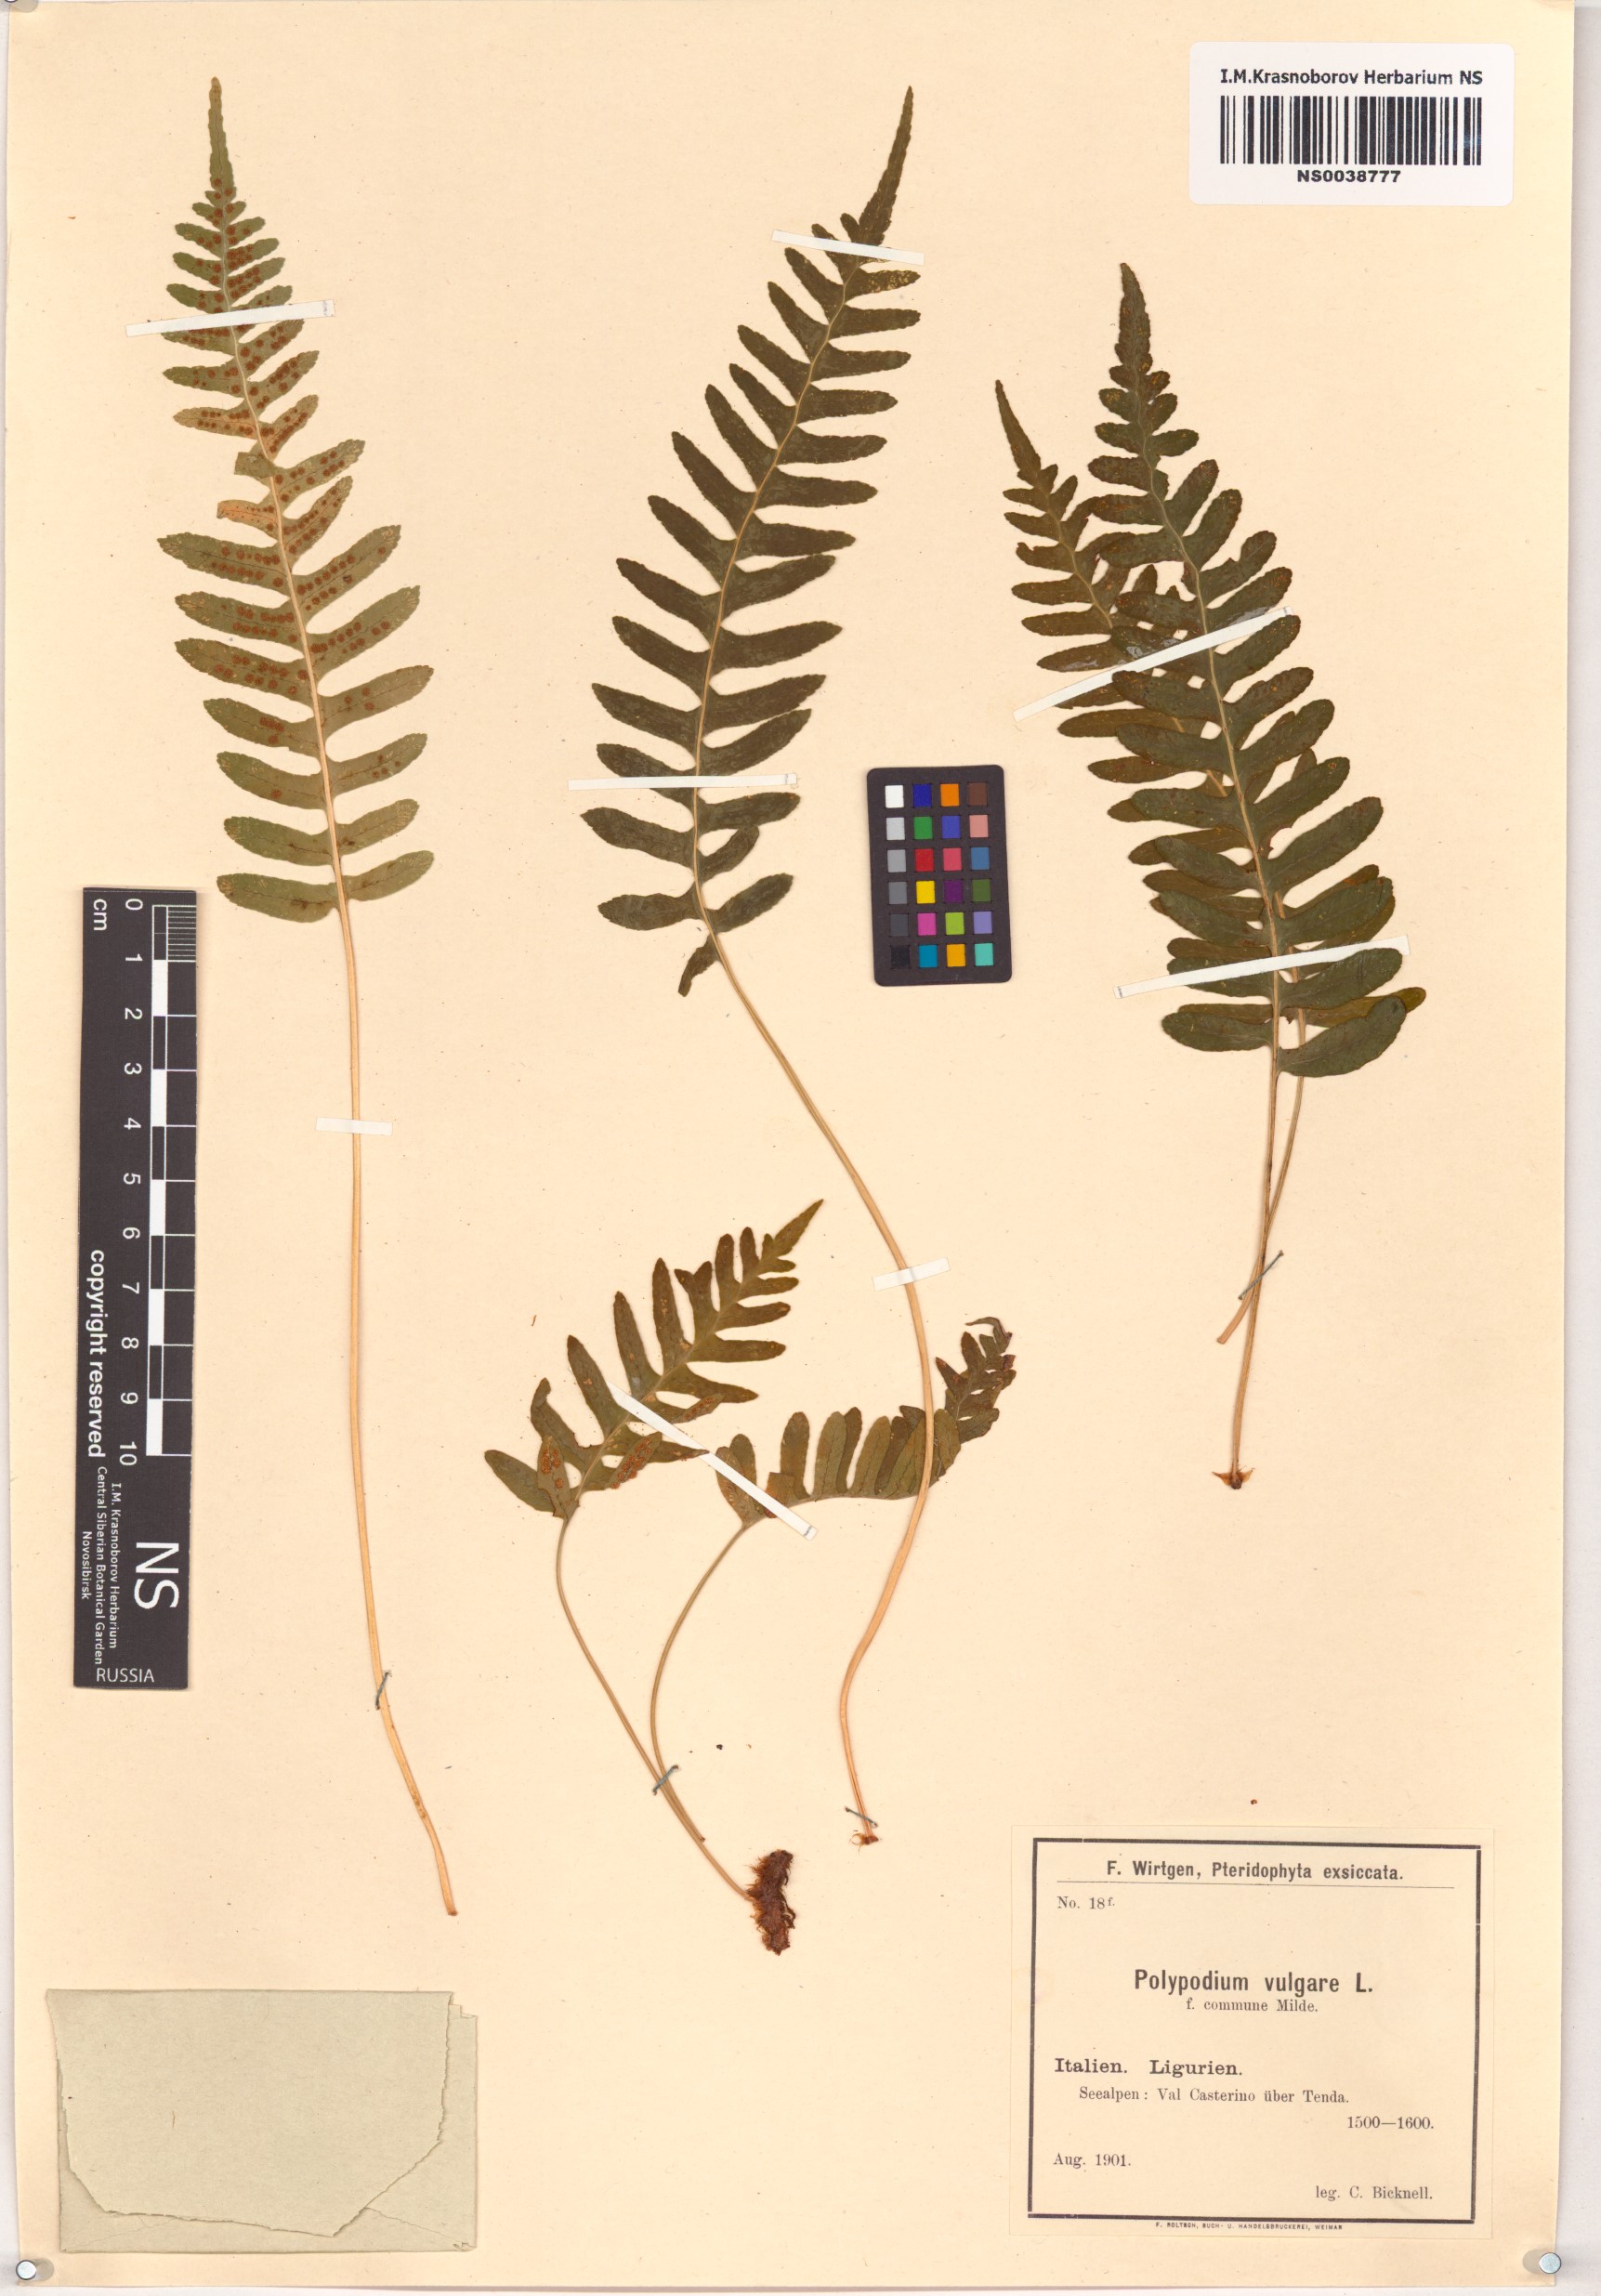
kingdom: Plantae
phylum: Tracheophyta
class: Polypodiopsida
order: Polypodiales
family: Polypodiaceae
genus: Polypodium
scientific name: Polypodium glycyrrhiza
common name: Licorice fern
